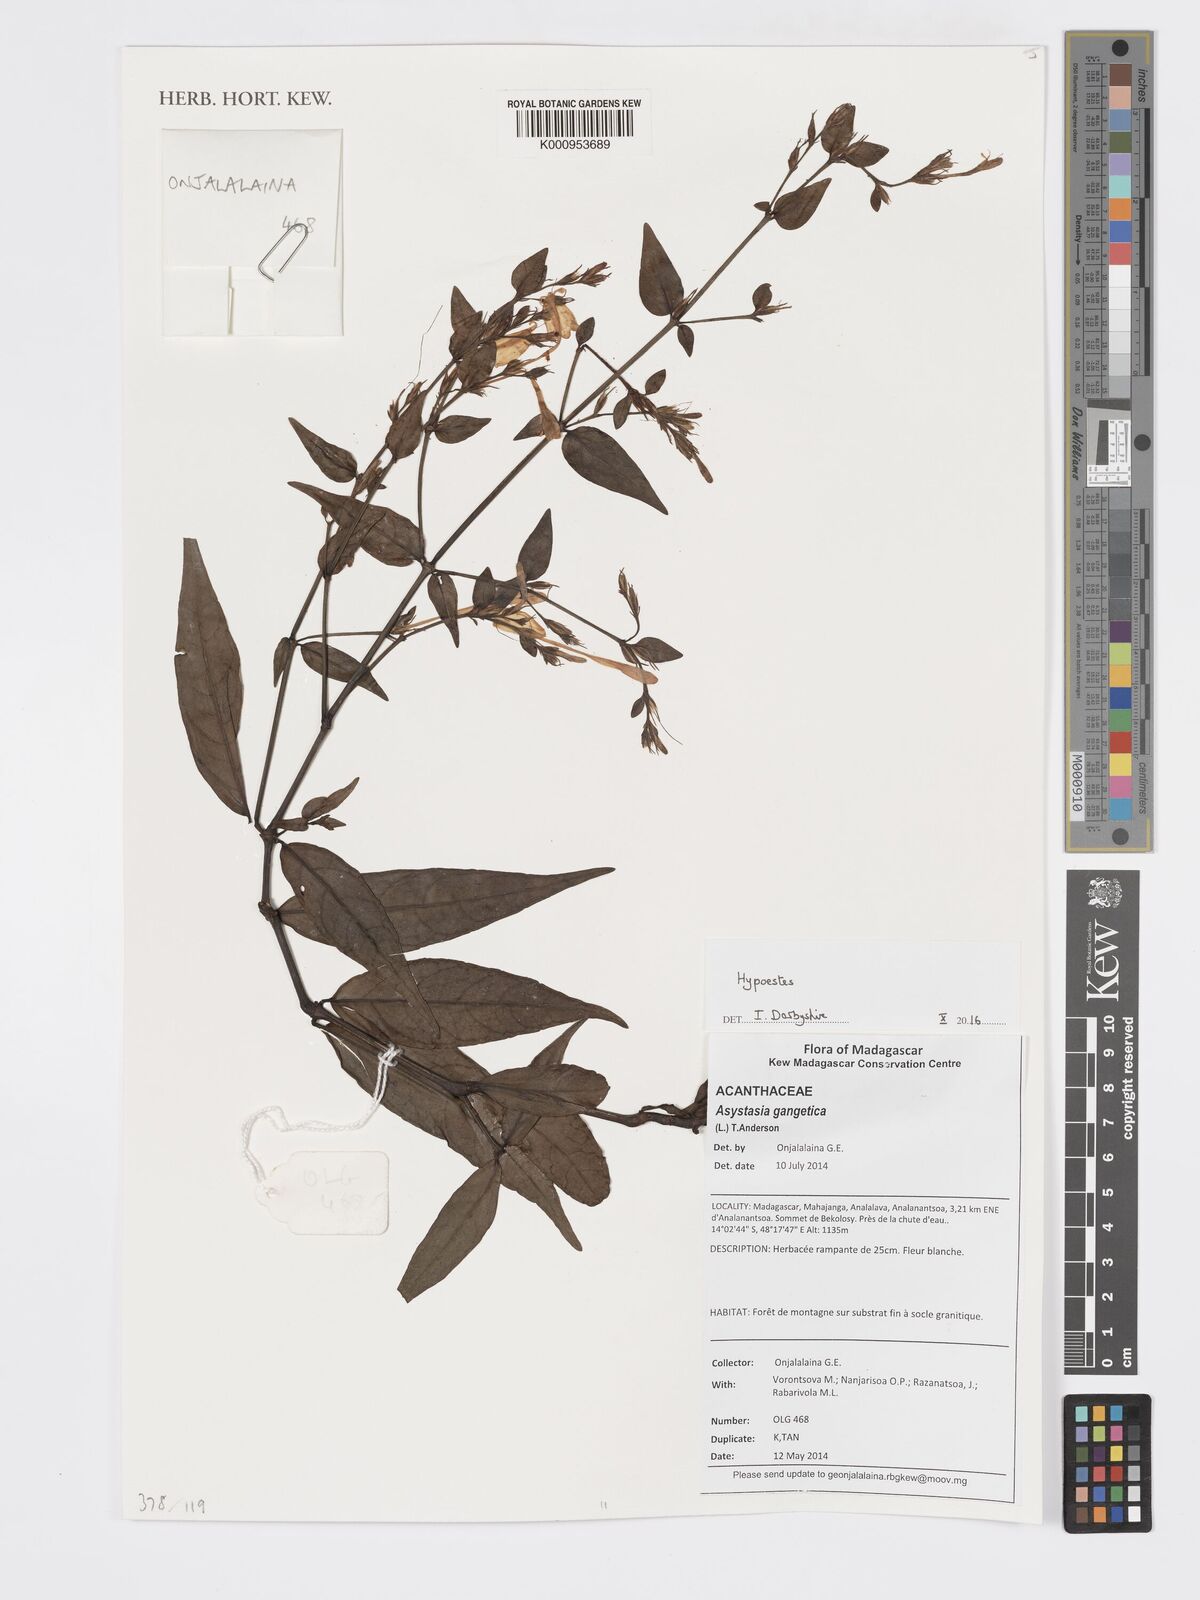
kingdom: Plantae
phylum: Tracheophyta
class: Magnoliopsida
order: Lamiales
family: Acanthaceae
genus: Hypoestes
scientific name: Hypoestes
